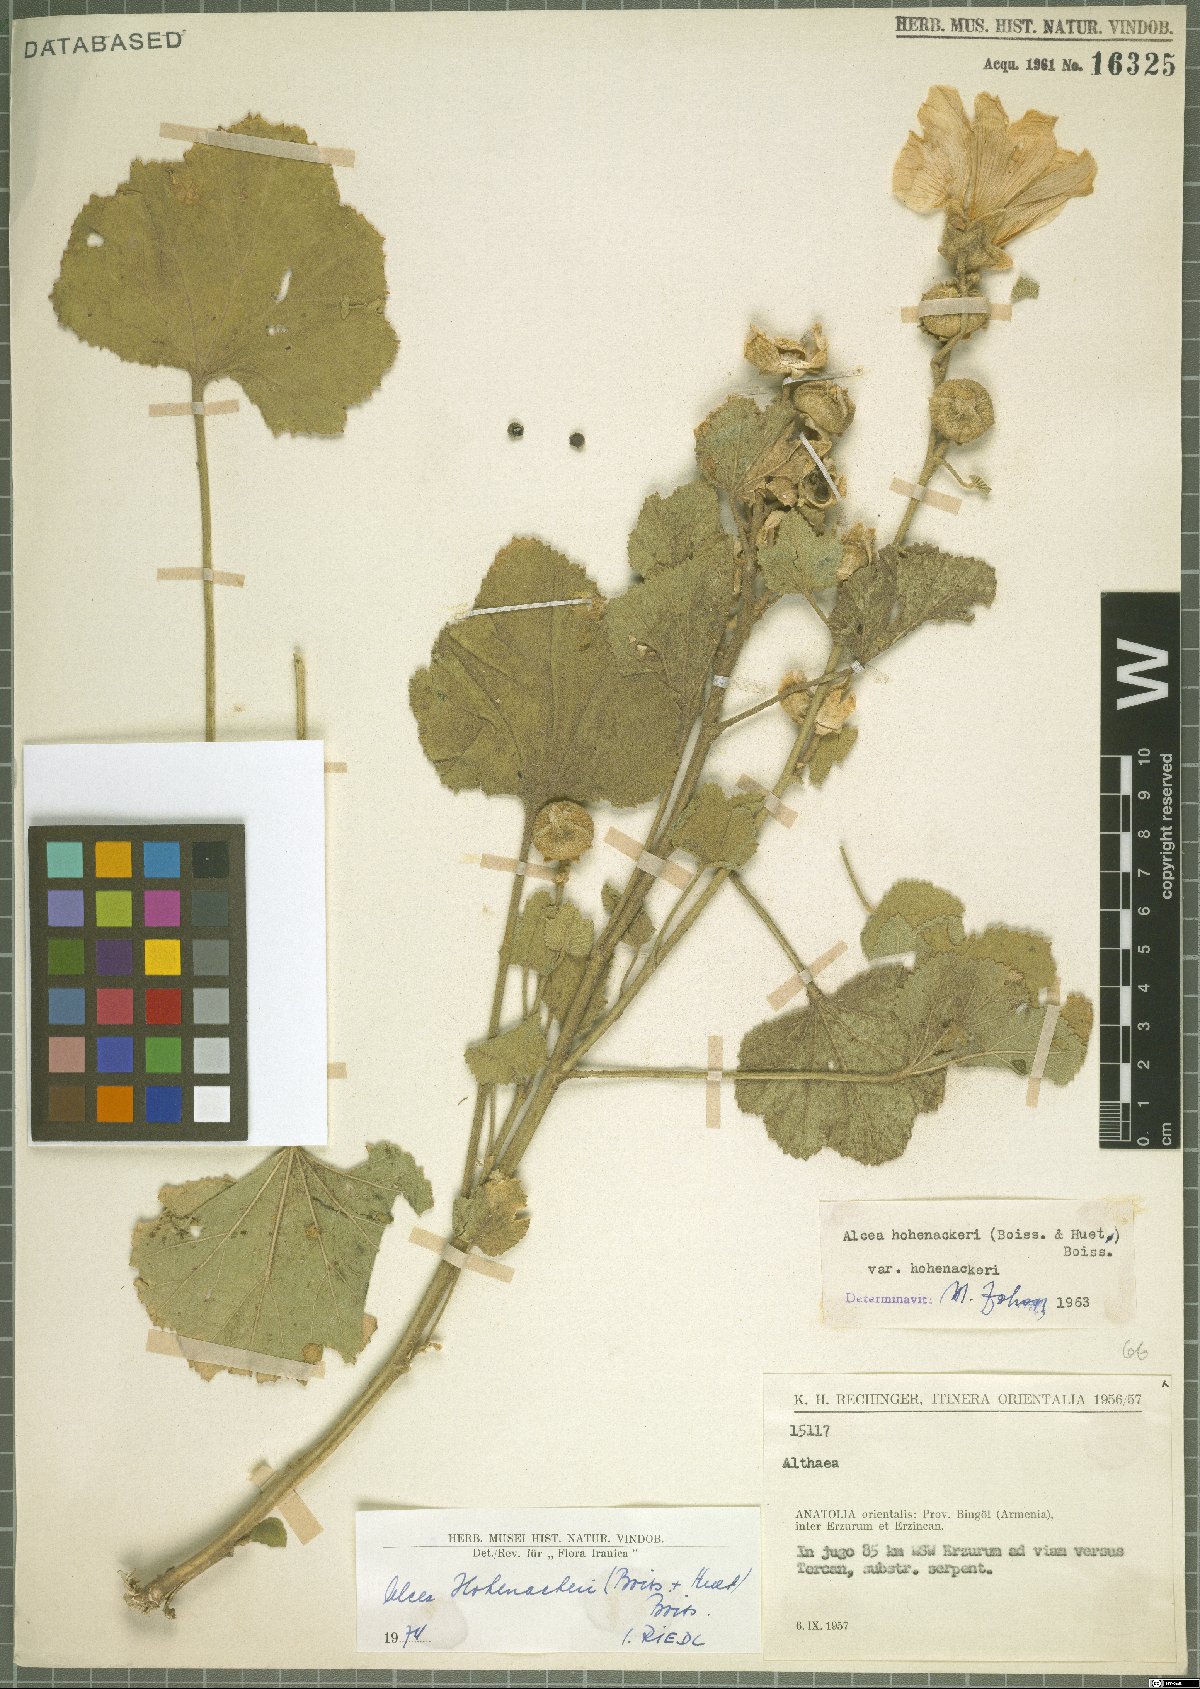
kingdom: Plantae
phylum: Tracheophyta
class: Magnoliopsida
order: Malvales
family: Malvaceae
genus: Alcea
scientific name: Alcea kurdica
